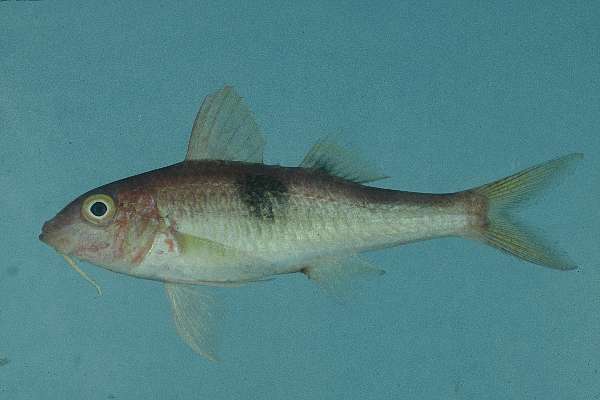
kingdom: Animalia
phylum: Chordata
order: Perciformes
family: Mullidae
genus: Parupeneus
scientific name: Parupeneus pleurostigma
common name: Sidespot goatfish
